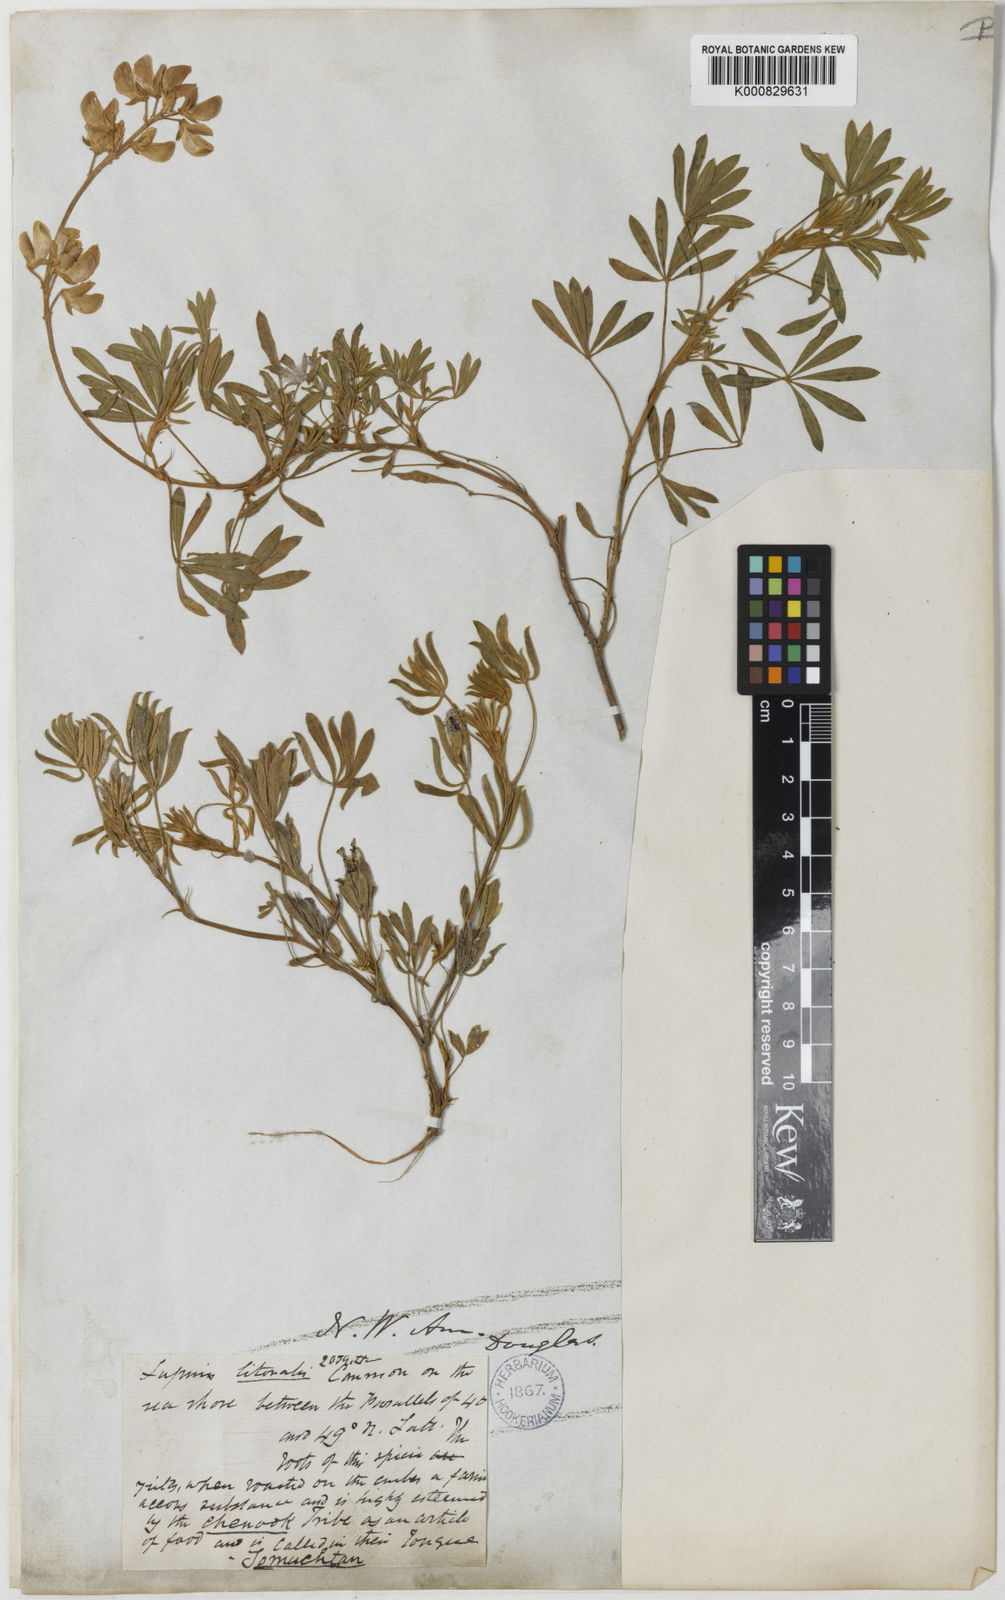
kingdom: Plantae
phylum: Tracheophyta
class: Magnoliopsida
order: Fabales
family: Fabaceae
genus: Lupinus
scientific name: Lupinus littoralis
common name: Seashore lupine
